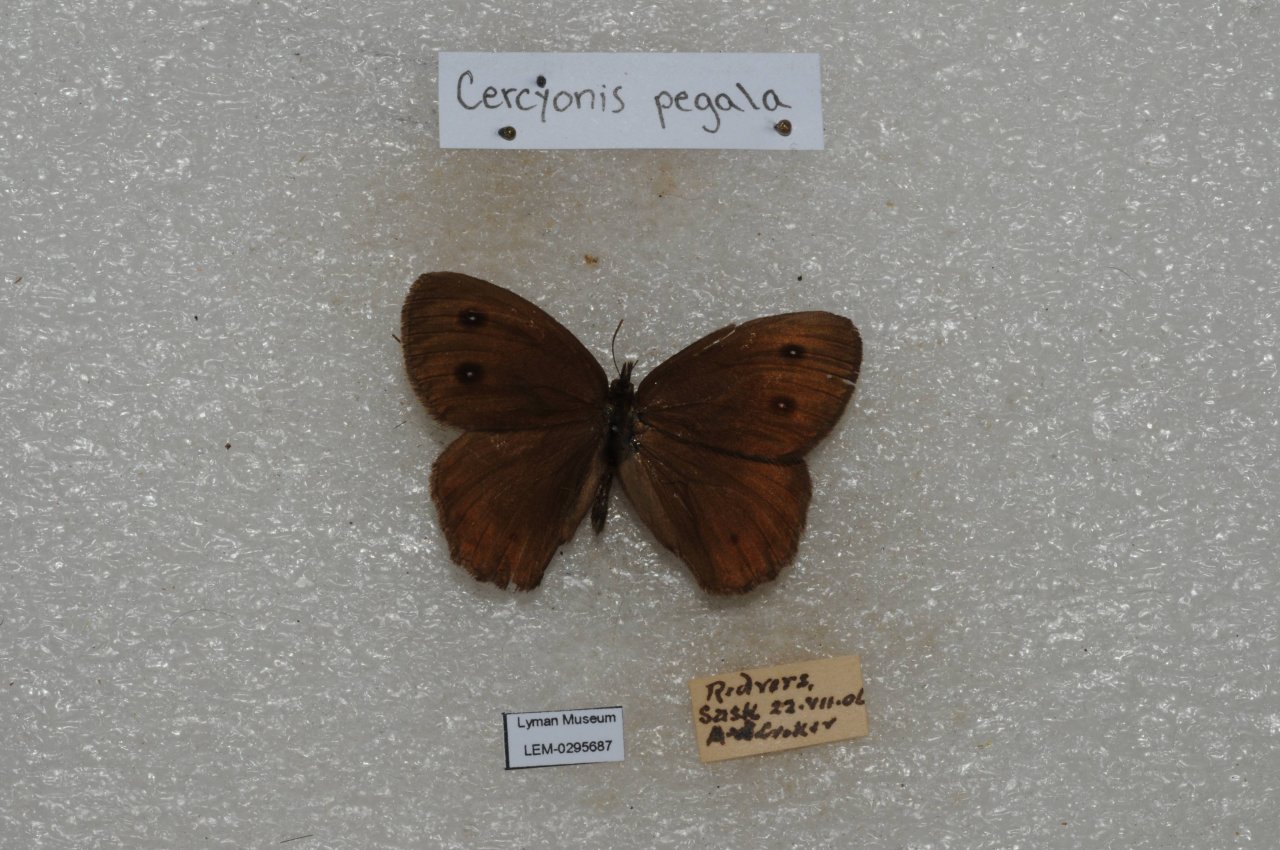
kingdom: Animalia
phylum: Arthropoda
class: Insecta
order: Lepidoptera
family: Nymphalidae
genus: Cercyonis
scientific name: Cercyonis pegala
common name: Common Wood-Nymph
